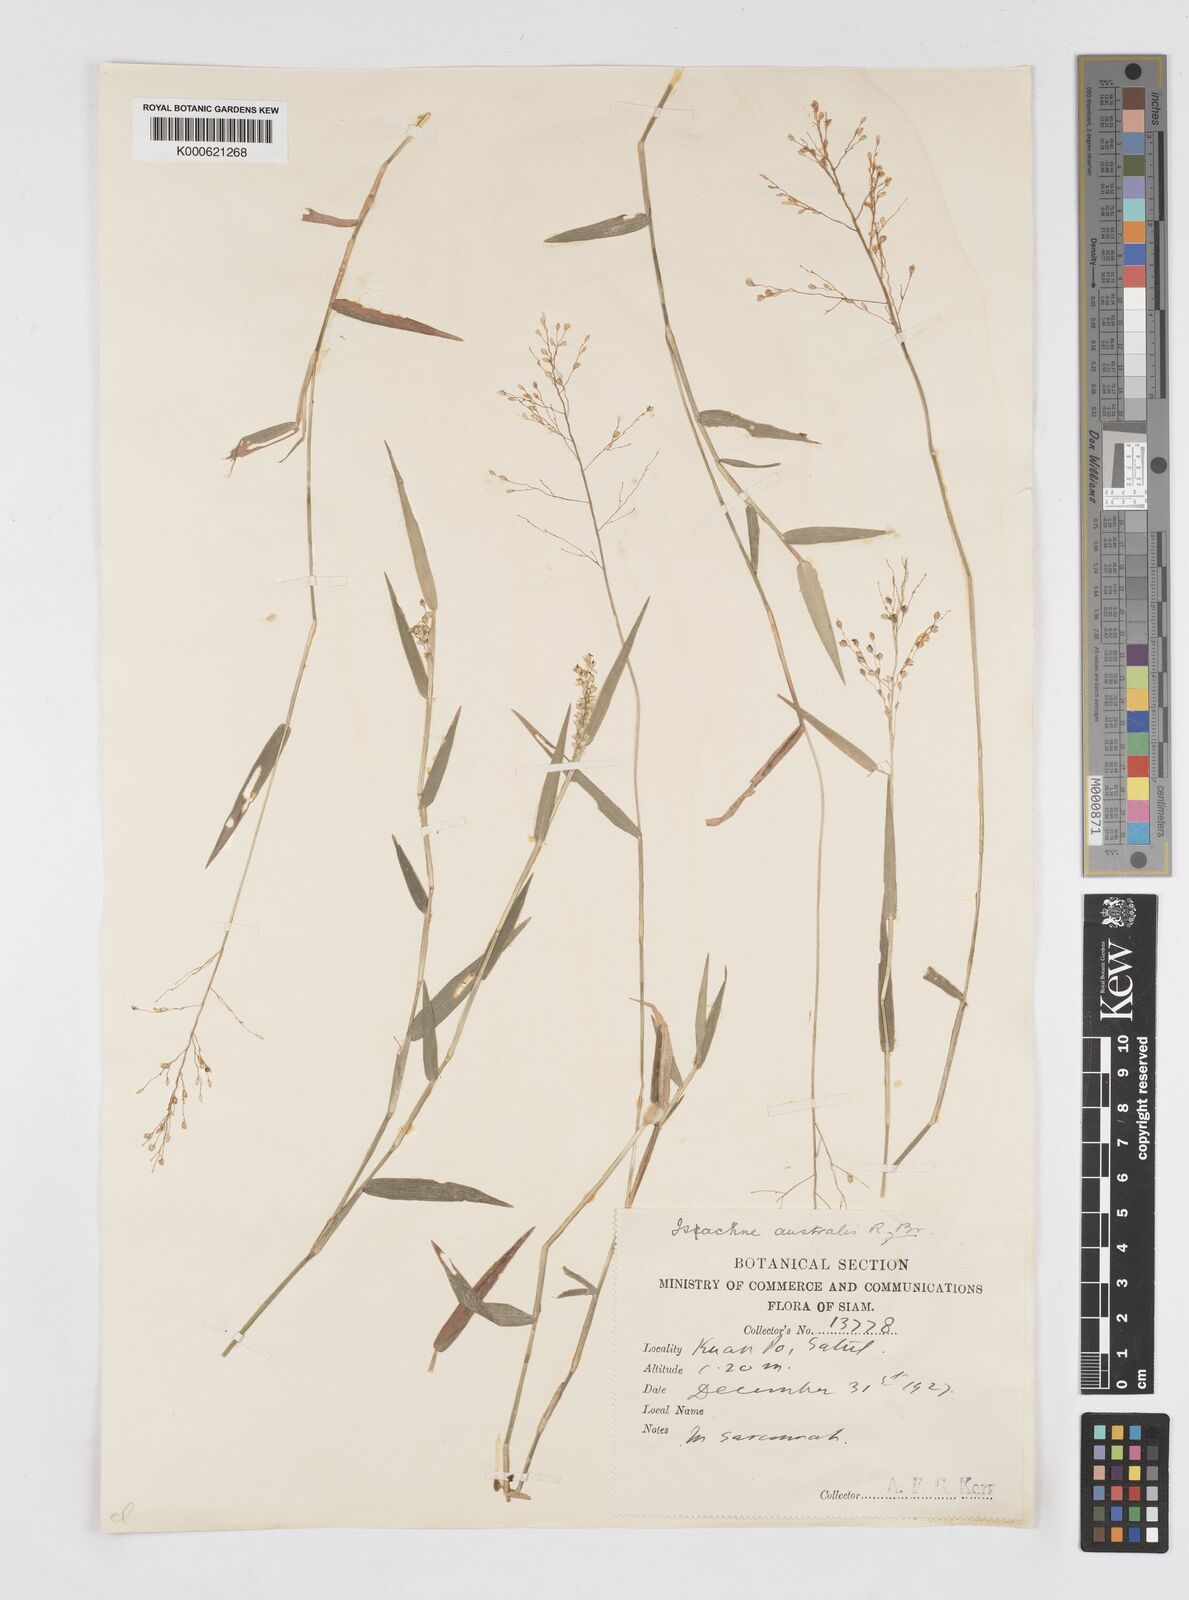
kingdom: Plantae
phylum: Tracheophyta
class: Liliopsida
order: Poales
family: Poaceae
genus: Isachne
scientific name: Isachne globosa
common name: Swamp millet
